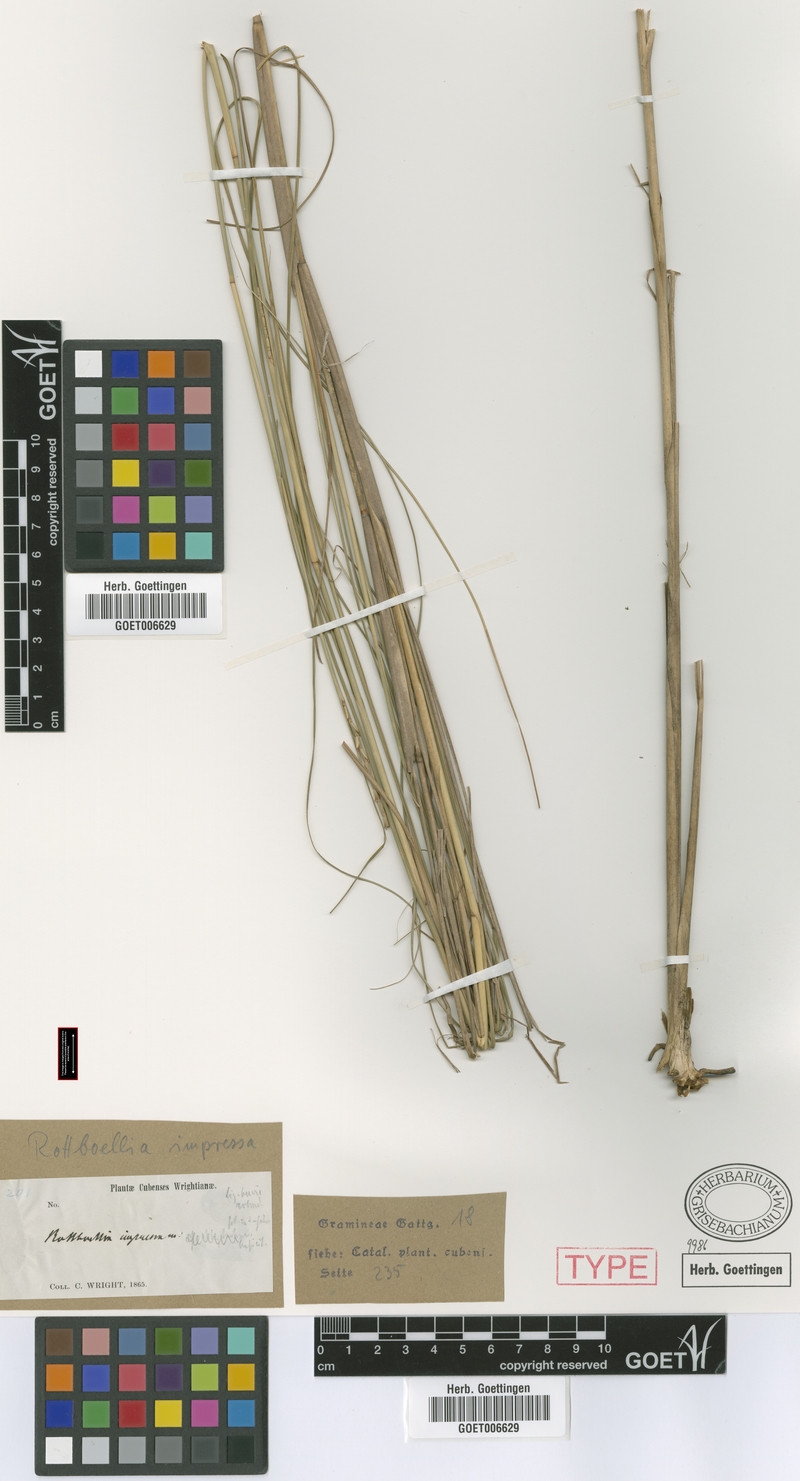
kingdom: Plantae
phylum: Tracheophyta
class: Liliopsida
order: Poales
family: Poaceae
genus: Rottboellia
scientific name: Rottboellia impressa
